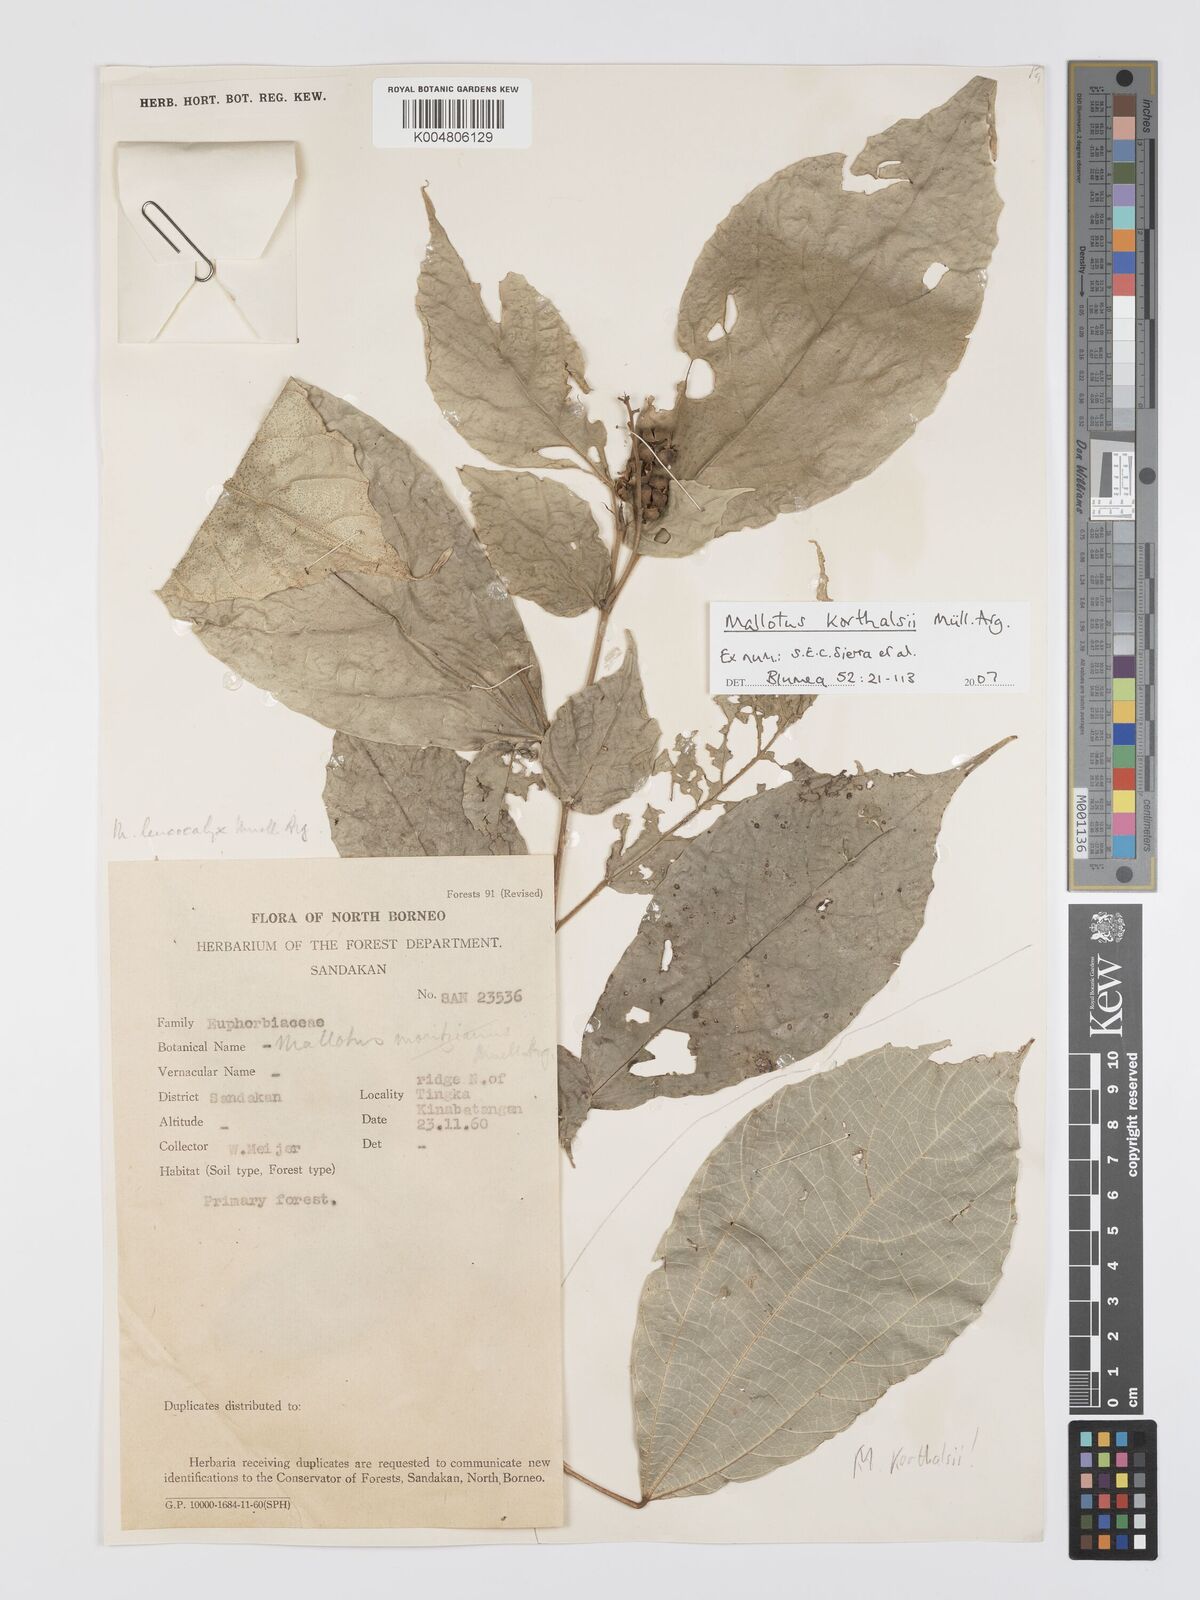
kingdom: Plantae
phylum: Tracheophyta
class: Magnoliopsida
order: Malpighiales
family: Euphorbiaceae
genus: Mallotus
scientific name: Mallotus korthalsii
